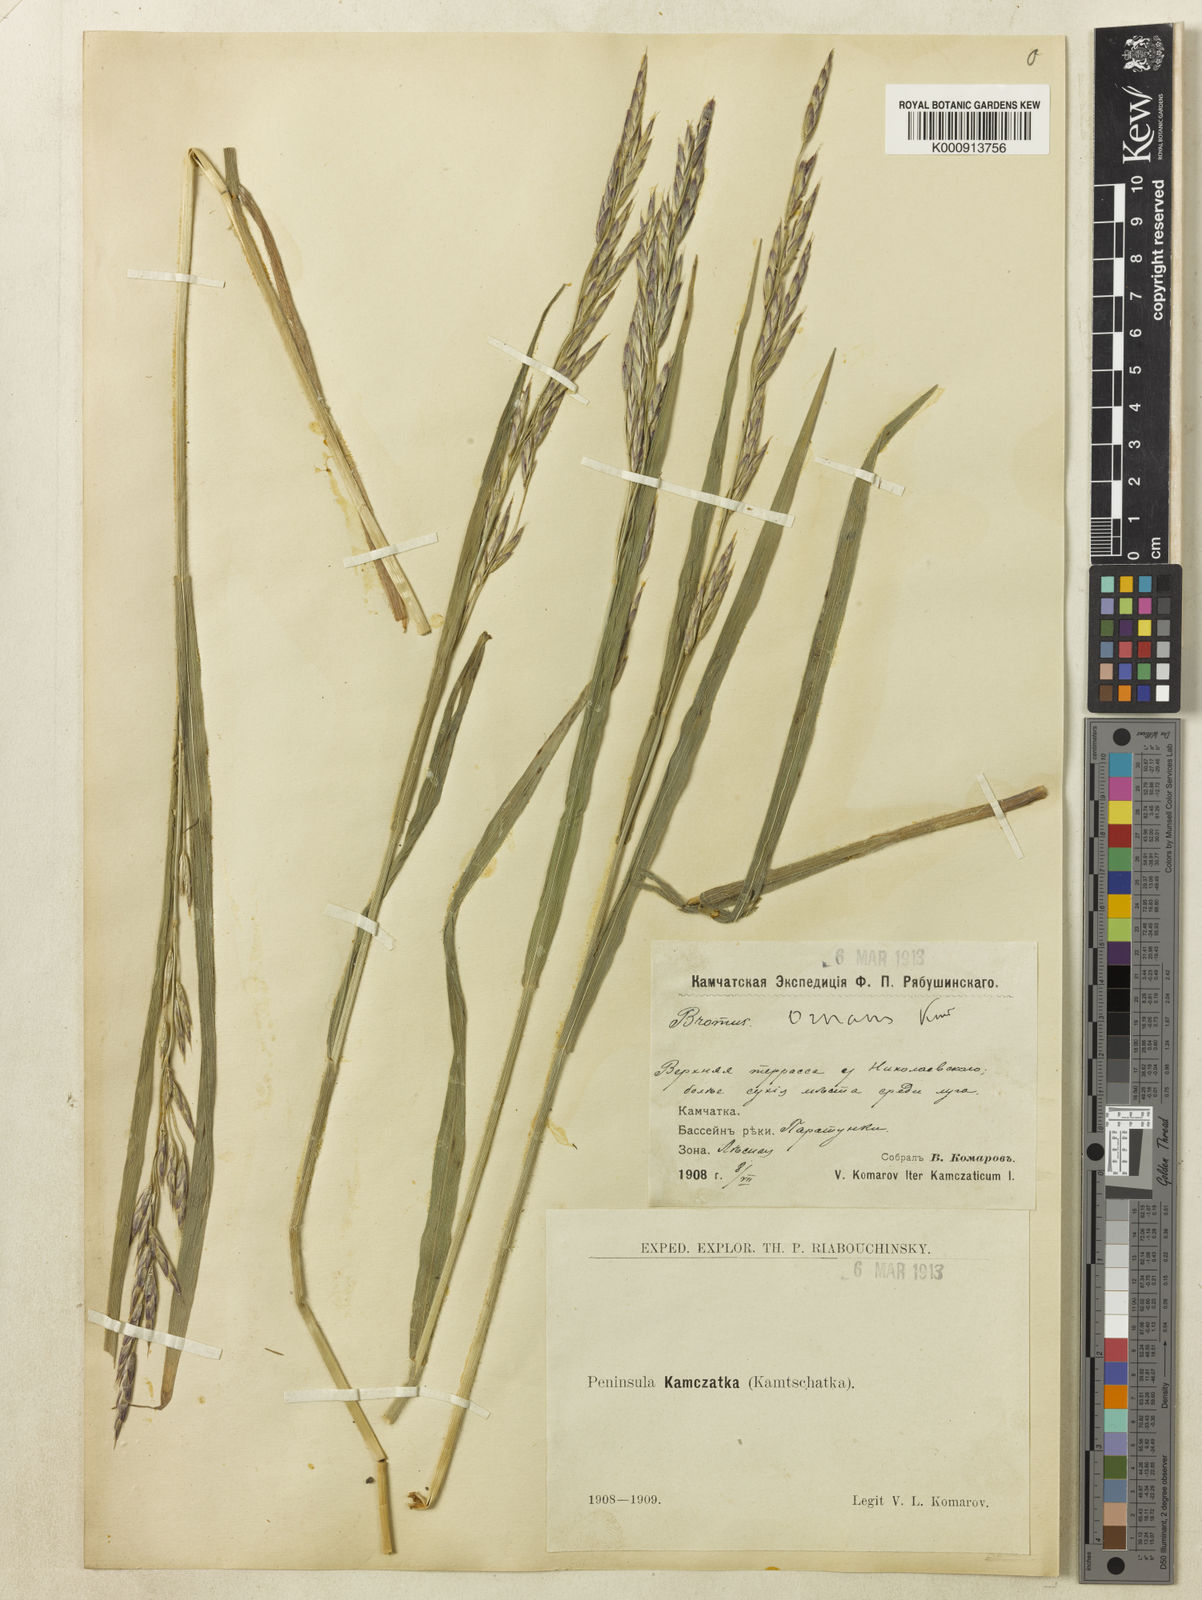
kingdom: Plantae
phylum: Tracheophyta
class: Liliopsida
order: Poales
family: Poaceae
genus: Bromus
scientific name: Bromus pumpellianus
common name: Pumpelly's brome
